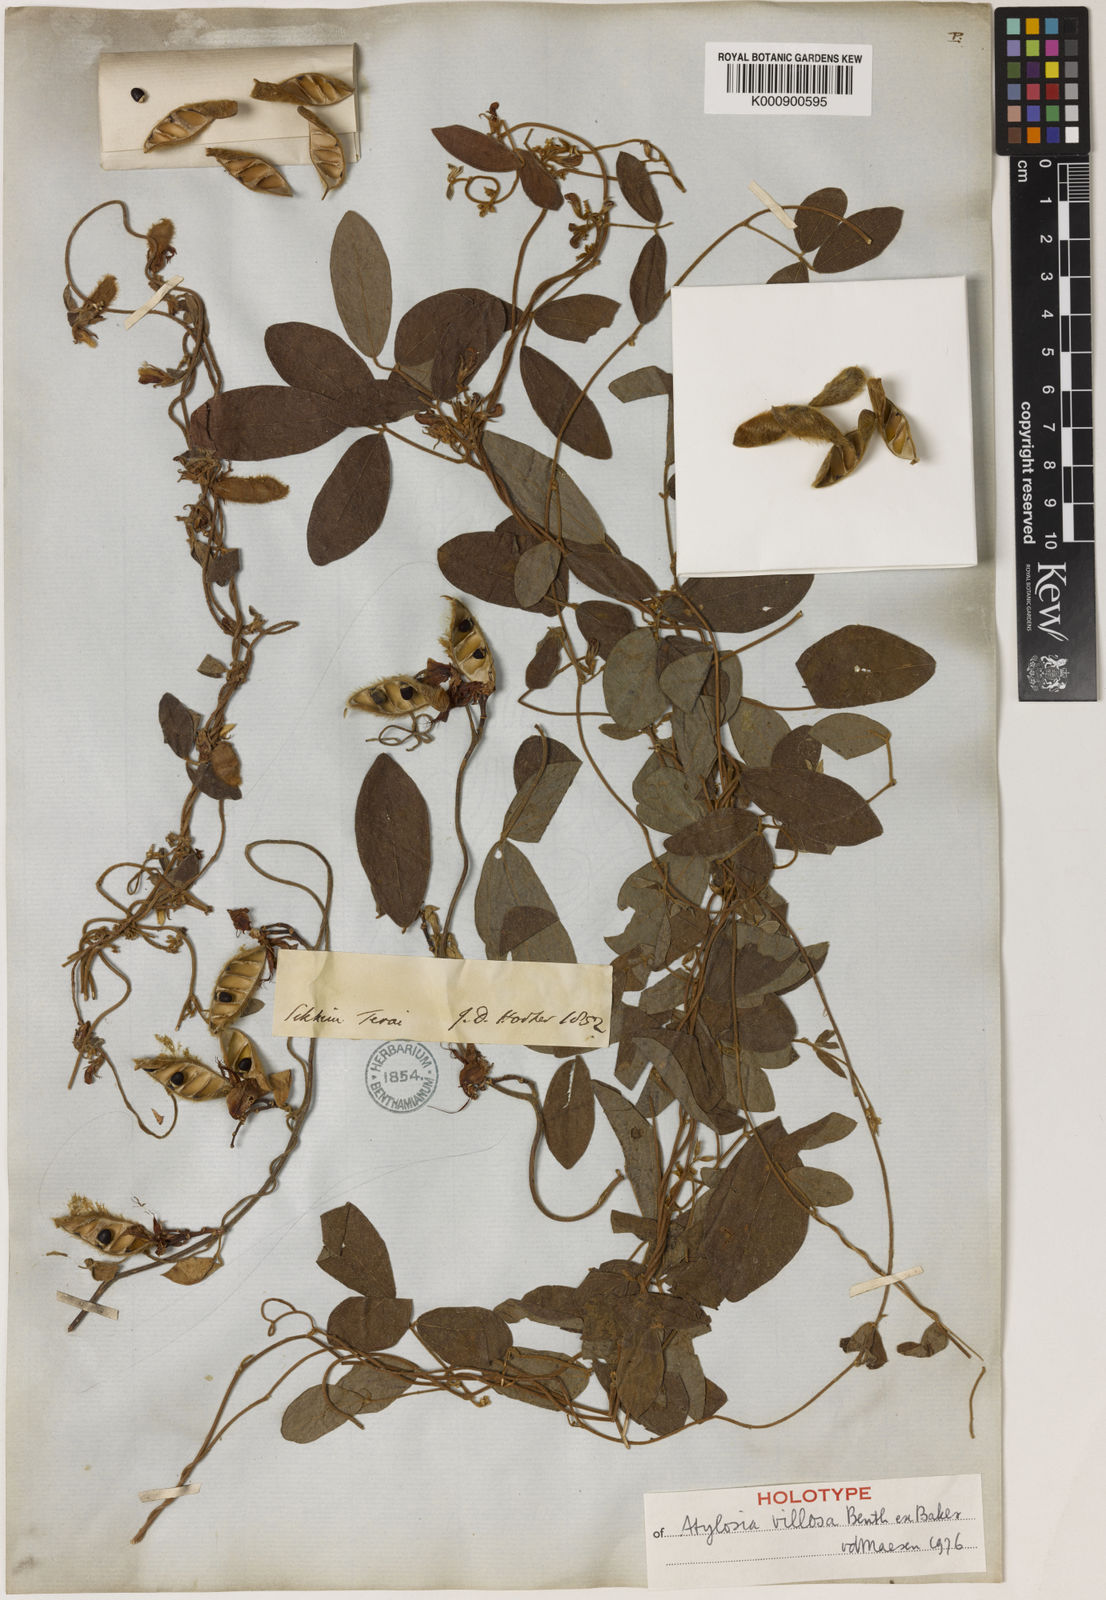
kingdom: Plantae
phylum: Tracheophyta
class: Magnoliopsida
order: Fabales
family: Fabaceae
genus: Cajanus
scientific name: Cajanus villosus
